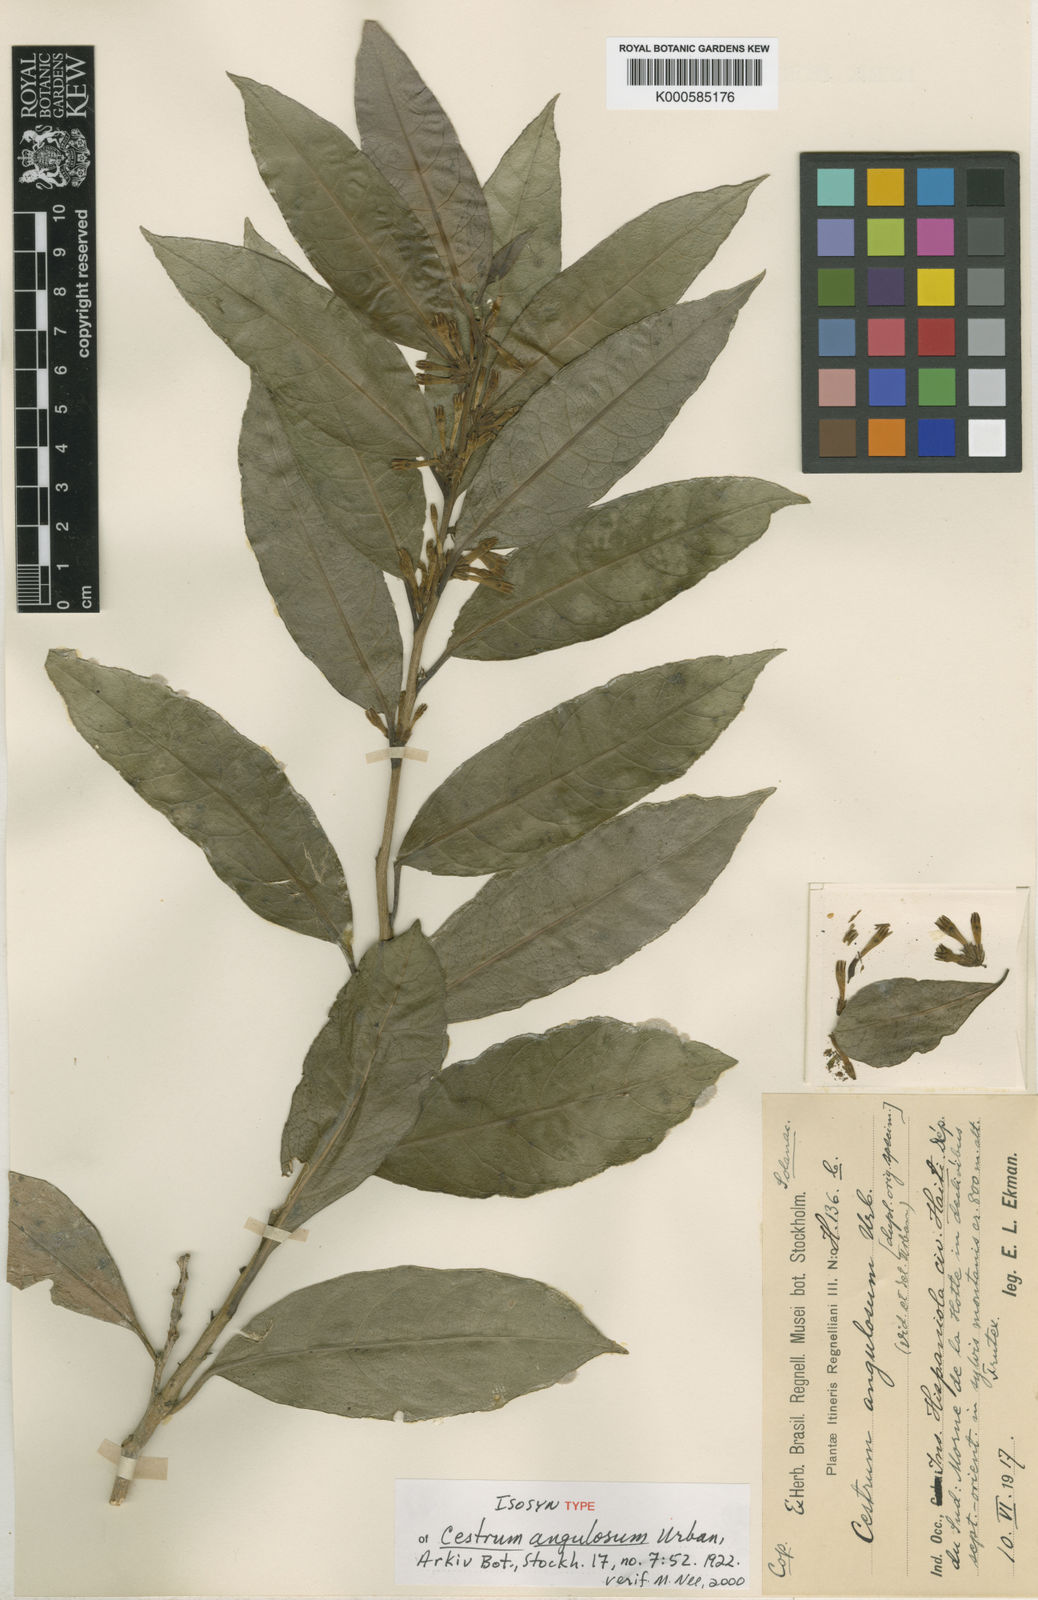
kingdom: Plantae
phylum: Tracheophyta
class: Magnoliopsida
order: Solanales
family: Solanaceae
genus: Cestrum
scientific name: Cestrum angulosum
